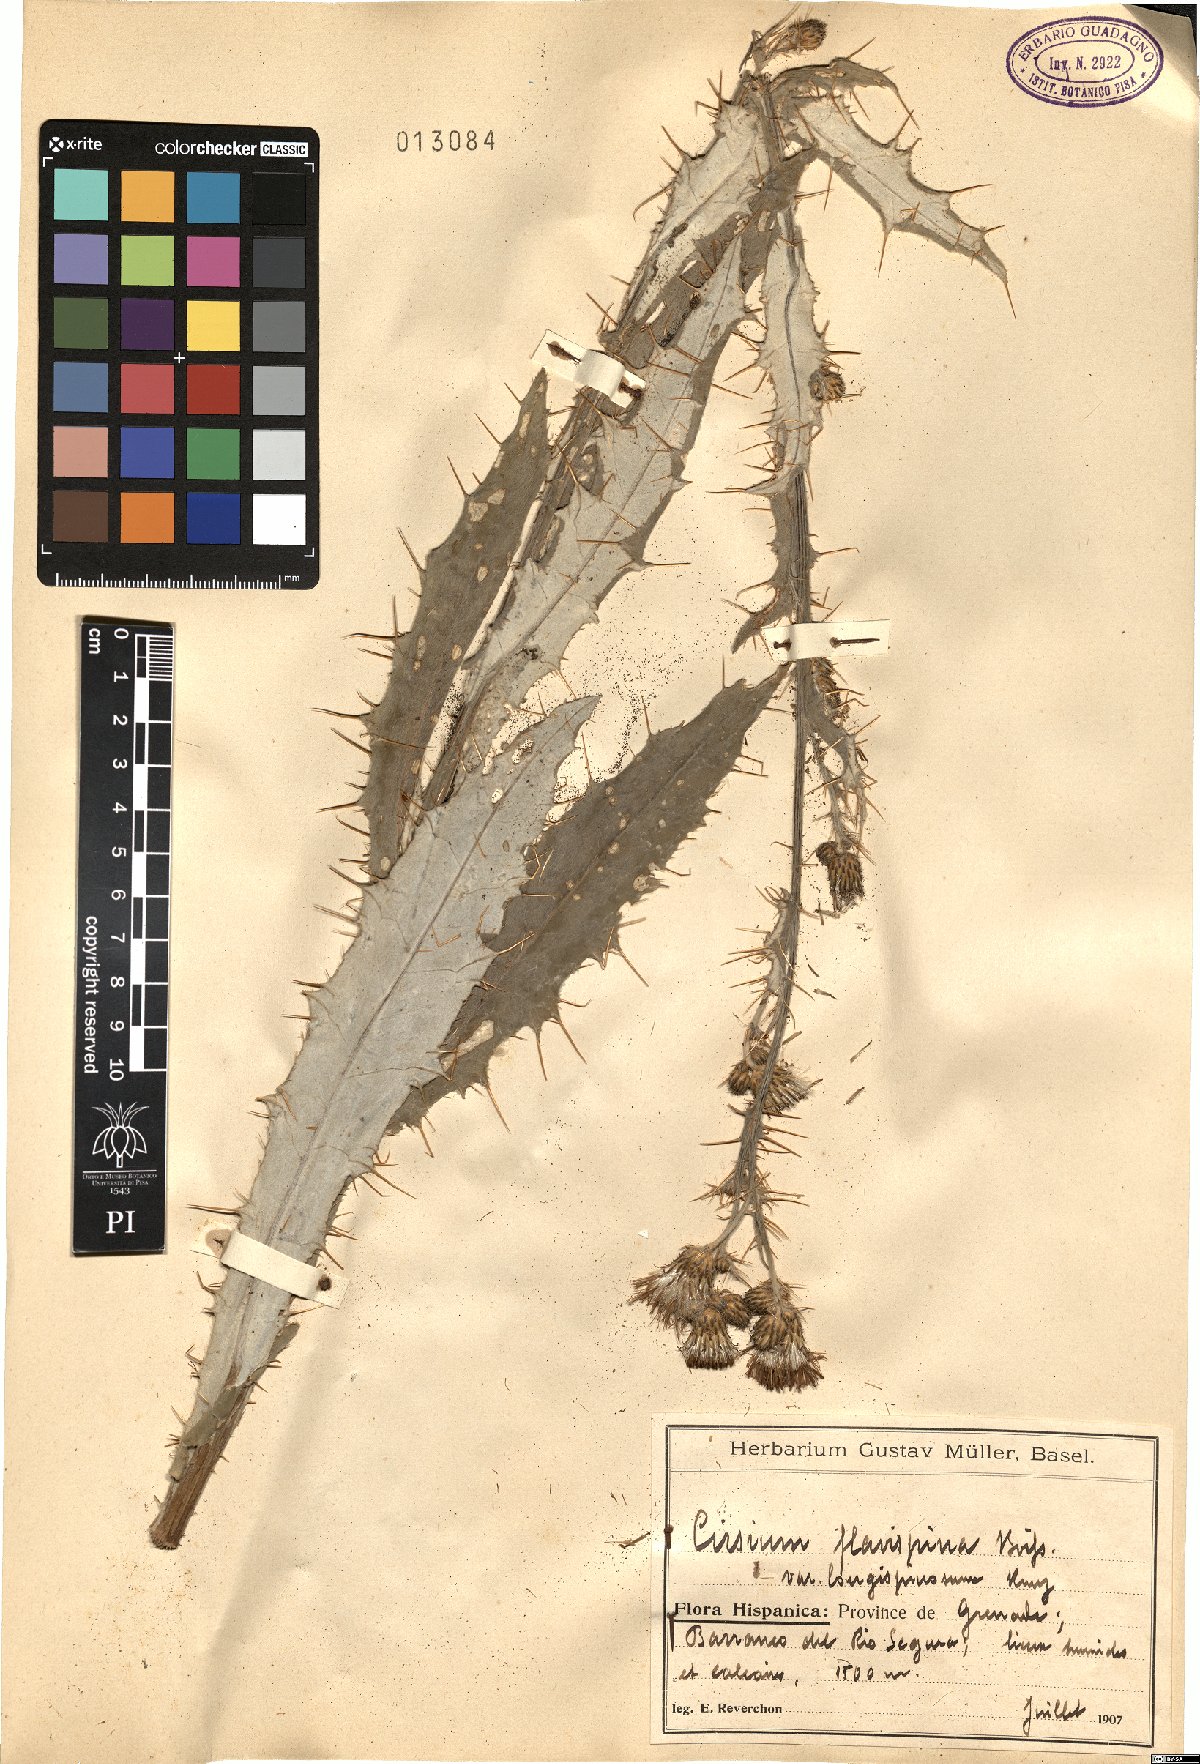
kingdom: Plantae
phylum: Tracheophyta
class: Magnoliopsida
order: Asterales
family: Asteraceae
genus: Cirsium
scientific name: Cirsium pyrenaicum
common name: Pyrenean thistle
